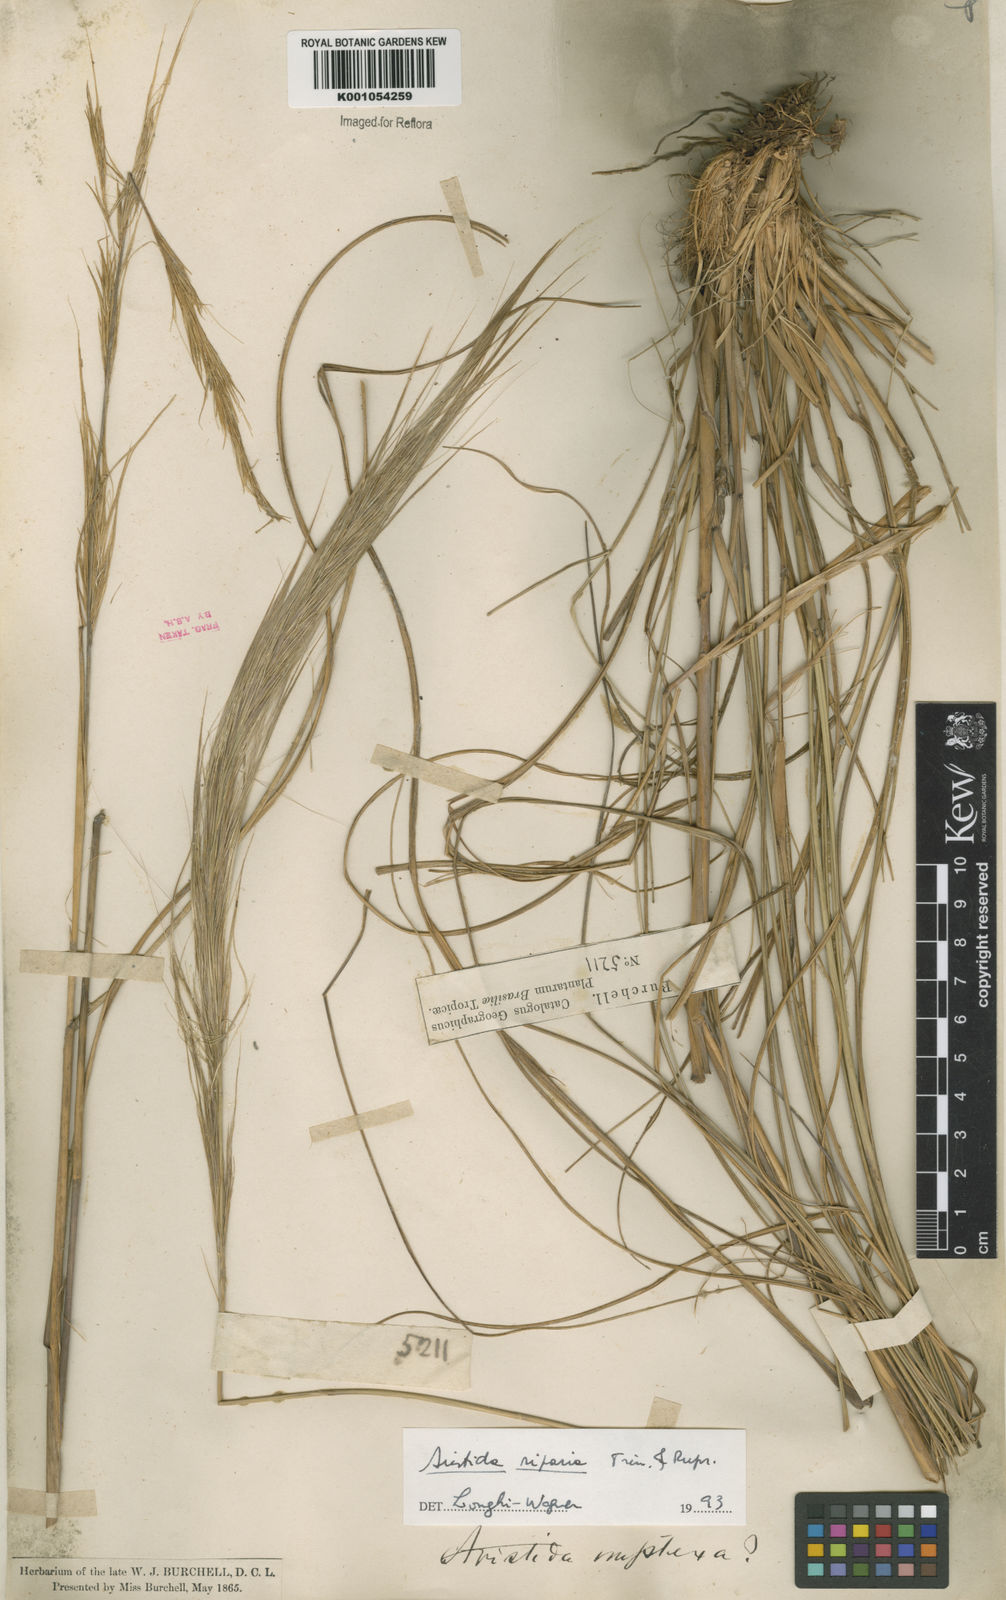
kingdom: Plantae
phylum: Tracheophyta
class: Liliopsida
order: Poales
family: Poaceae
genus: Aristida
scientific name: Aristida riparia
